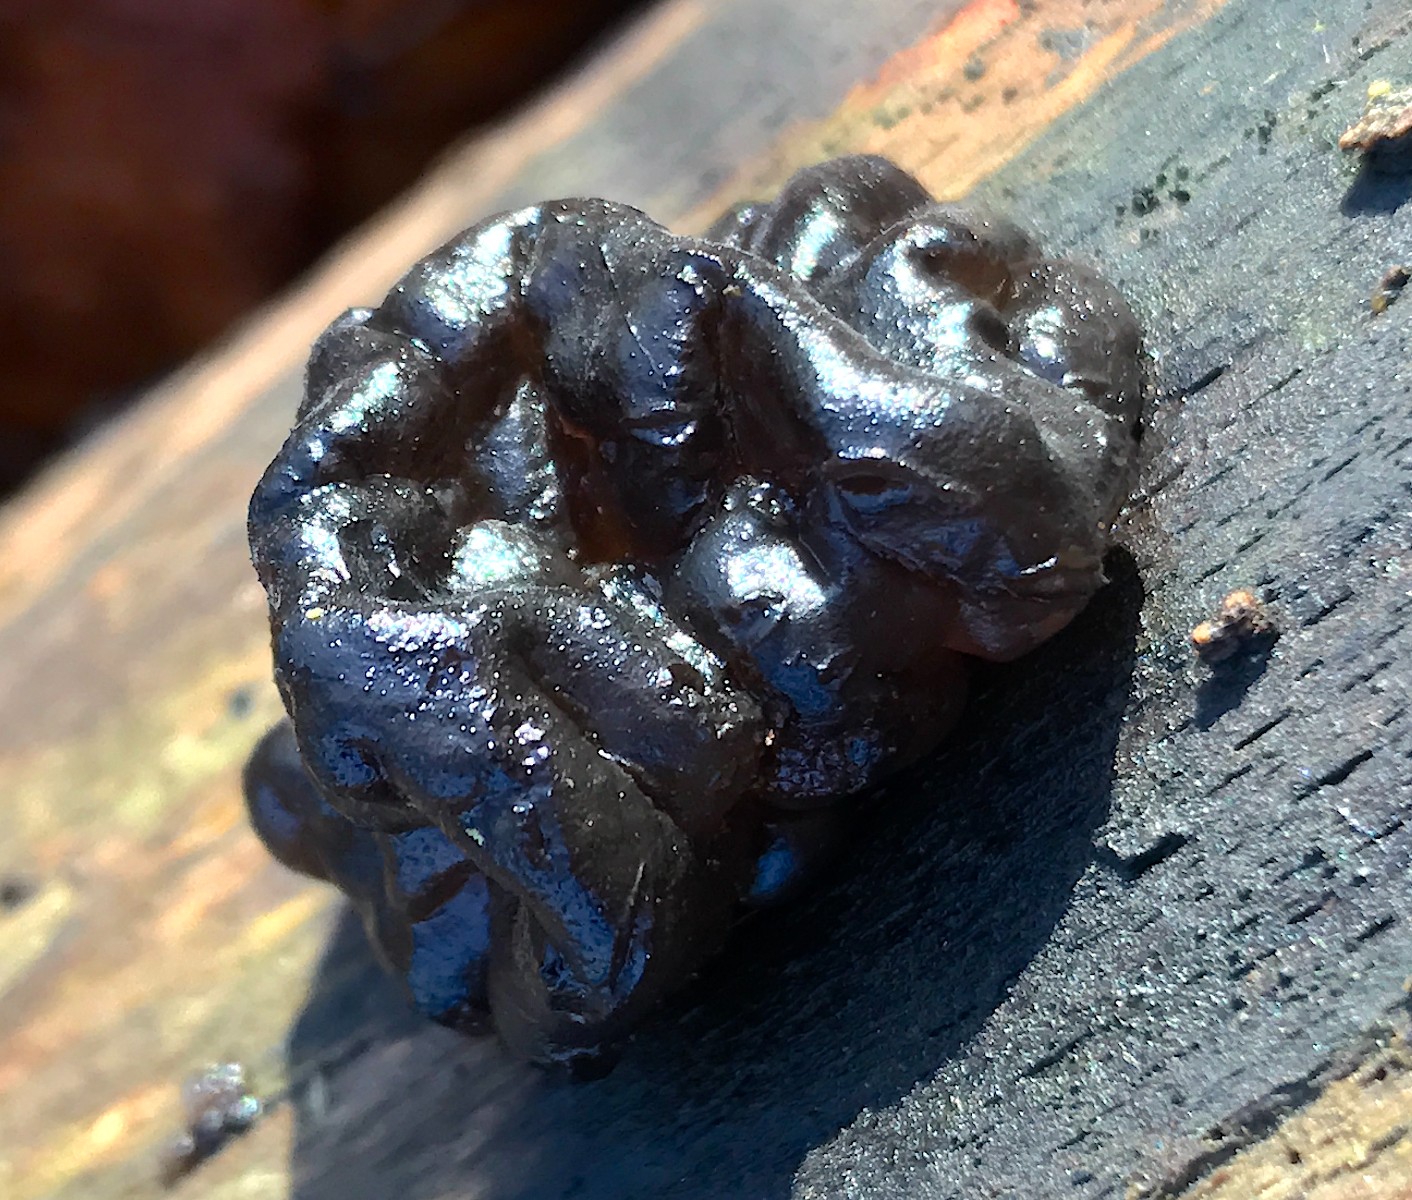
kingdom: Fungi
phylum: Basidiomycota
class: Agaricomycetes
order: Auriculariales
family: Auriculariaceae
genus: Exidia
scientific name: Exidia nigricans
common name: almindelig bævretop
